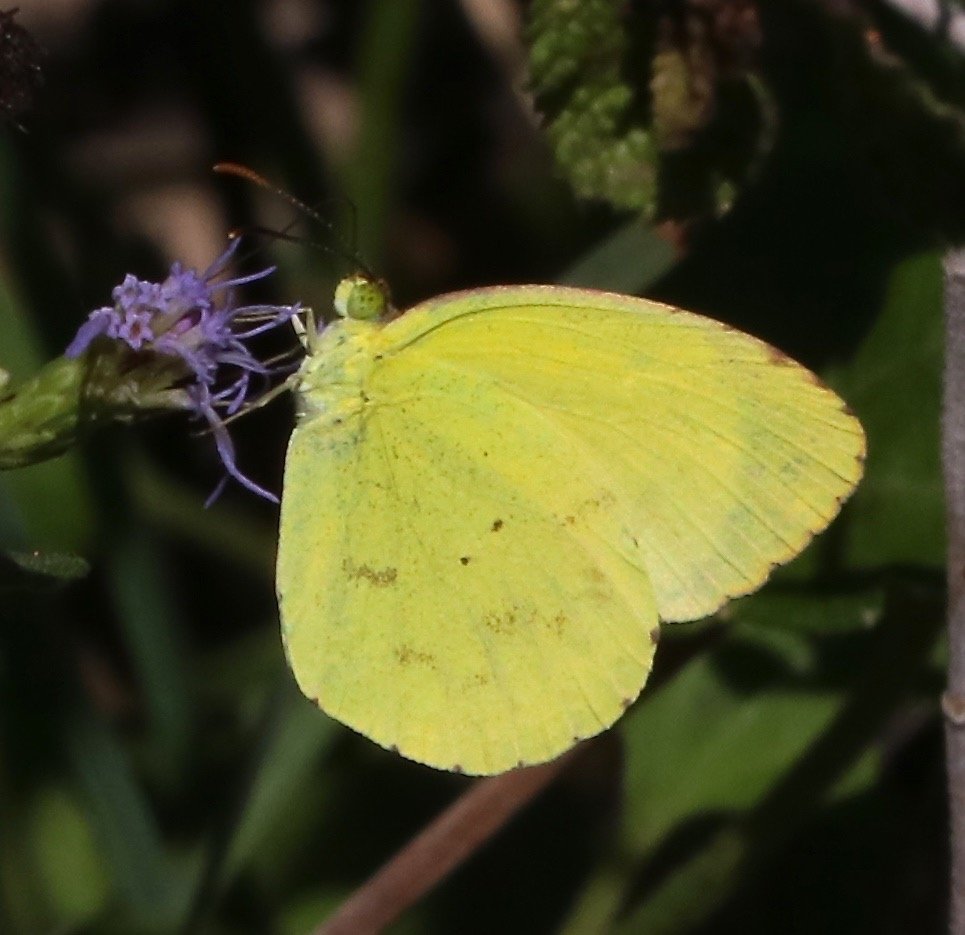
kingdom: Animalia
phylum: Arthropoda
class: Insecta
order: Lepidoptera
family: Pieridae
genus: Pyrisitia
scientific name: Pyrisitia nise
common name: Mimosa Yellow
